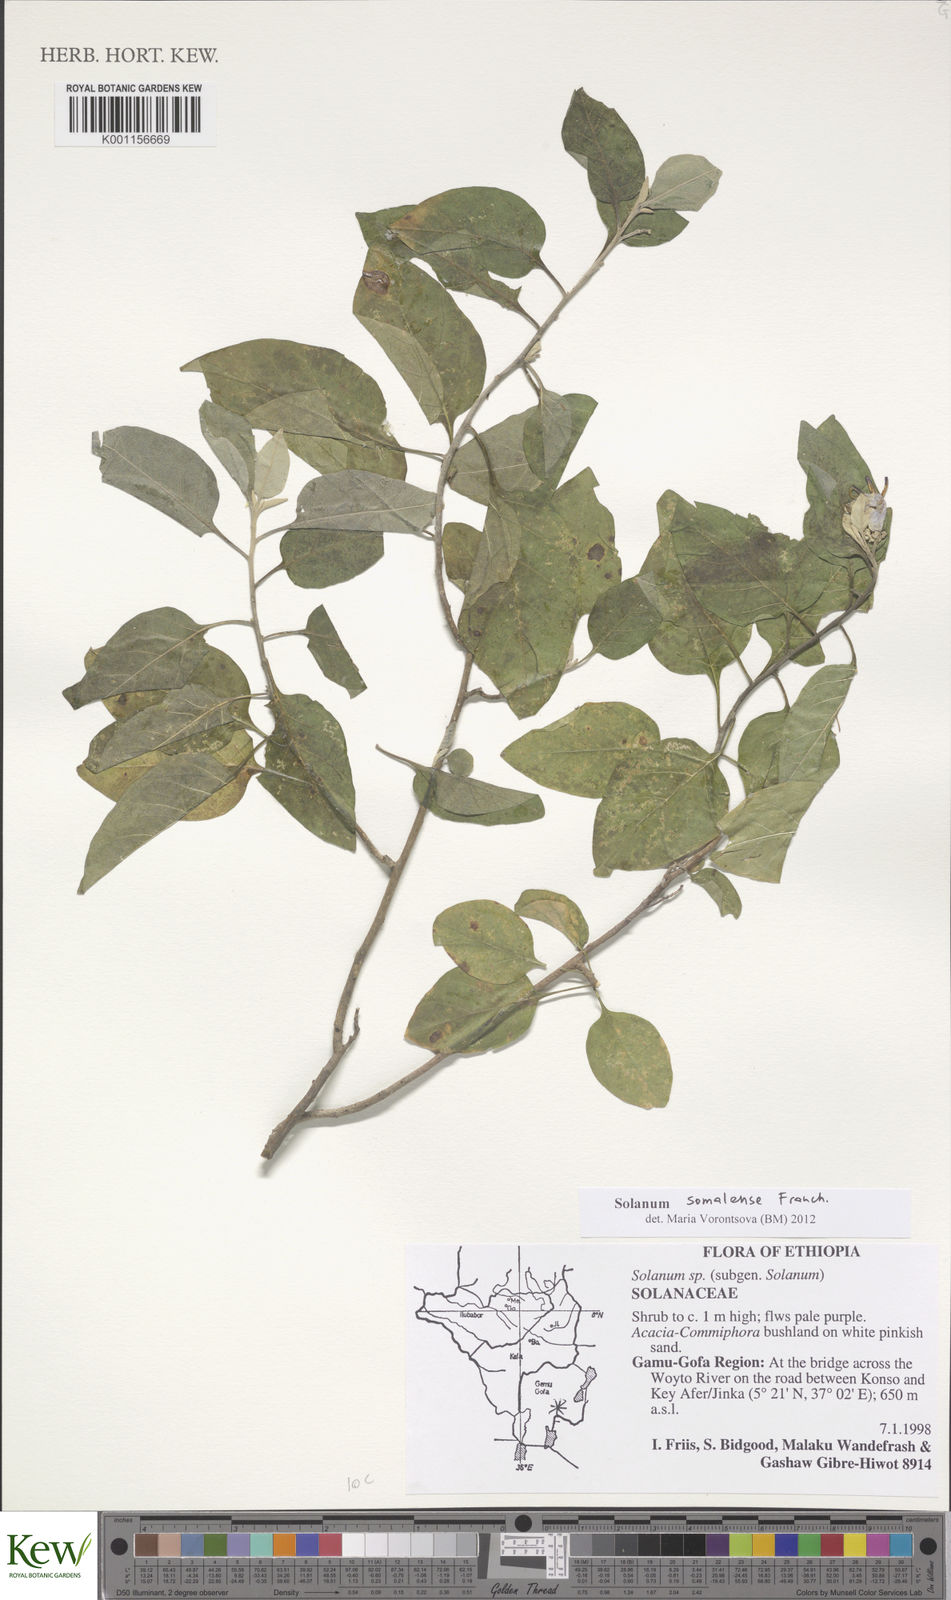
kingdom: Plantae
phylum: Tracheophyta
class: Magnoliopsida
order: Solanales
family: Solanaceae
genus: Solanum
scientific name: Solanum somalense
